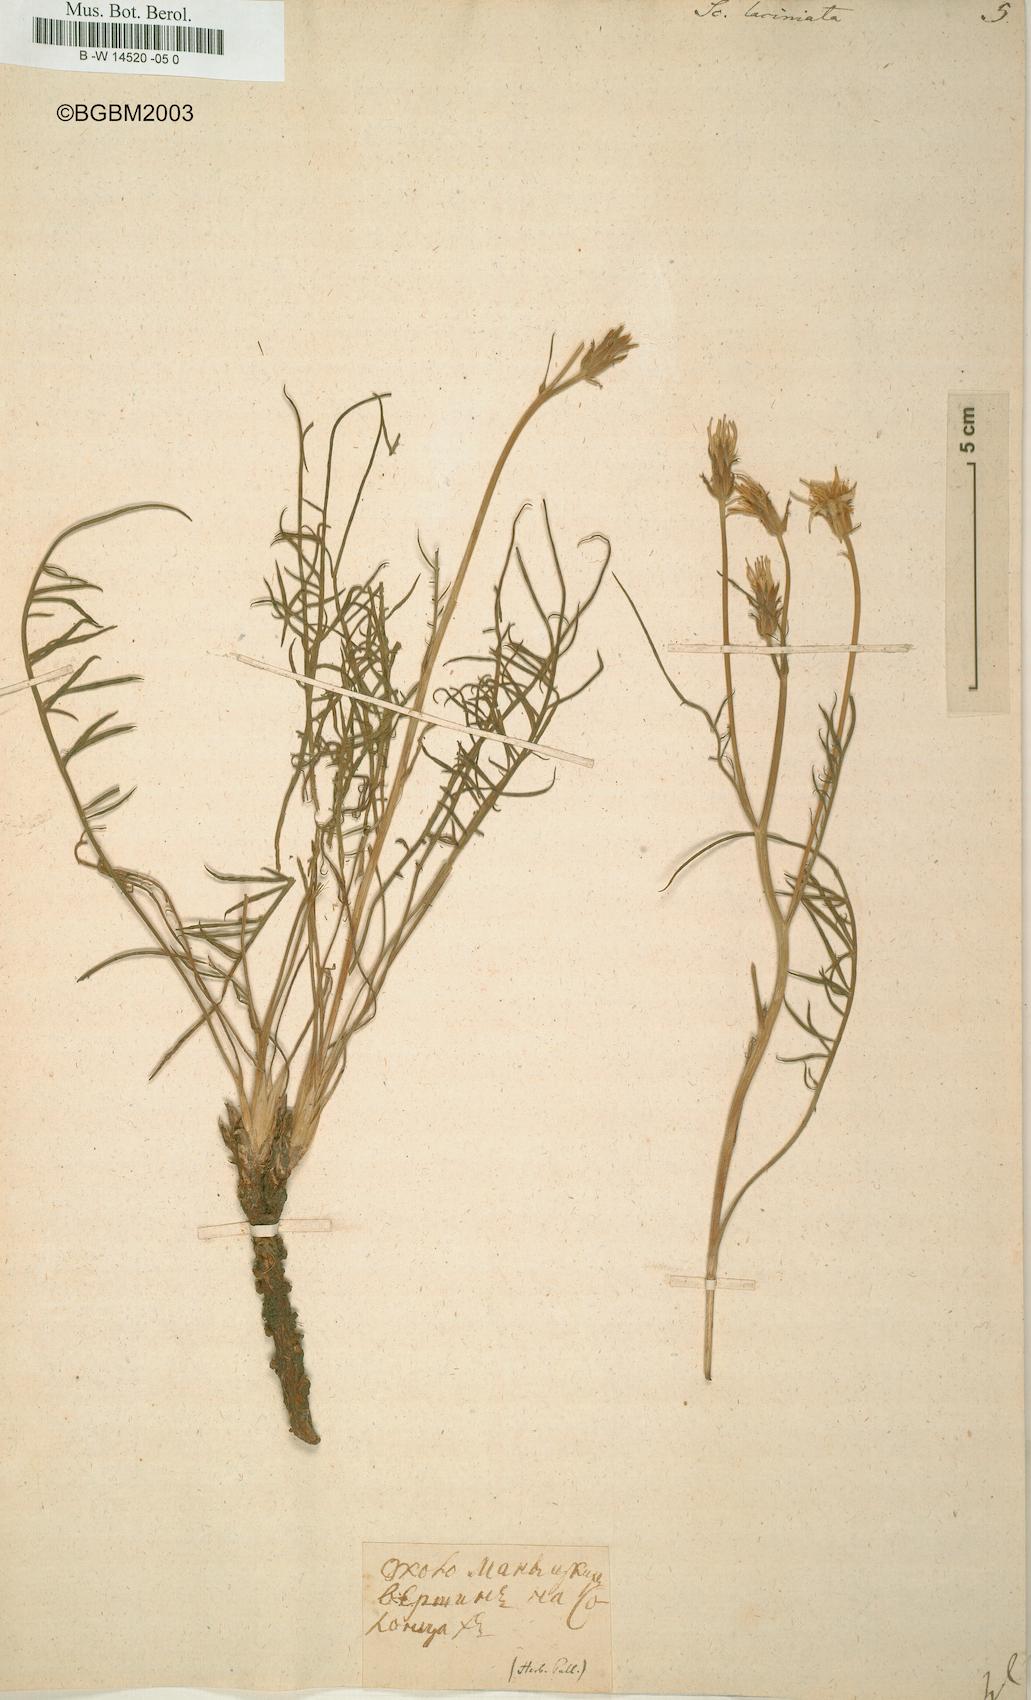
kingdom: Plantae
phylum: Tracheophyta
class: Magnoliopsida
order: Asterales
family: Asteraceae
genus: Scorzonera
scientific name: Scorzonera laciniata
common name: Cutleaf vipergrass
